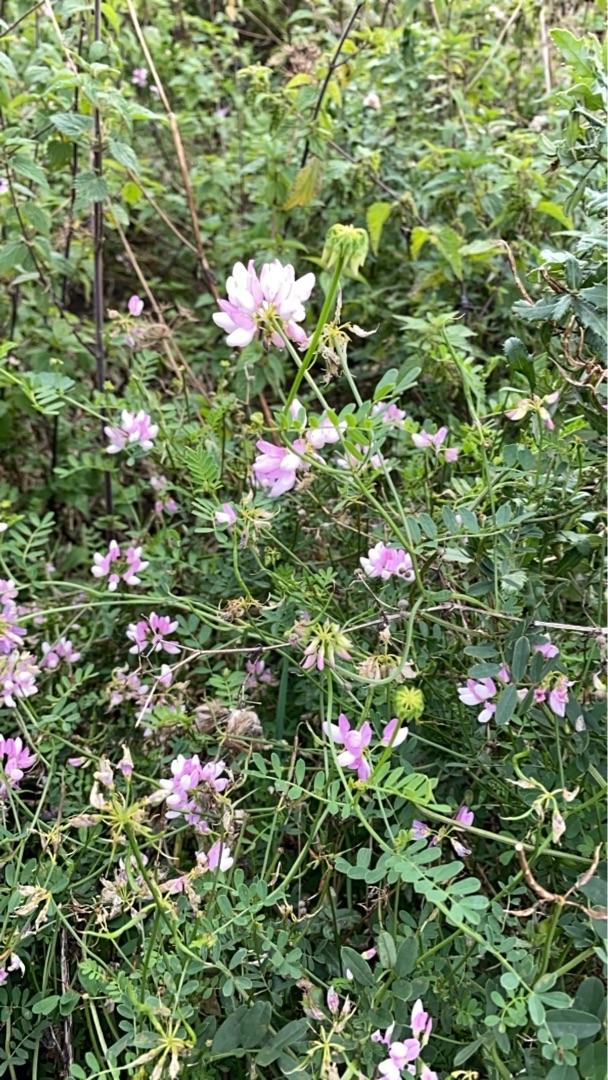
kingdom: Plantae
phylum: Tracheophyta
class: Magnoliopsida
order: Fabales
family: Fabaceae
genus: Coronilla
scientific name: Coronilla varia
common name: Giftig kronvikke
